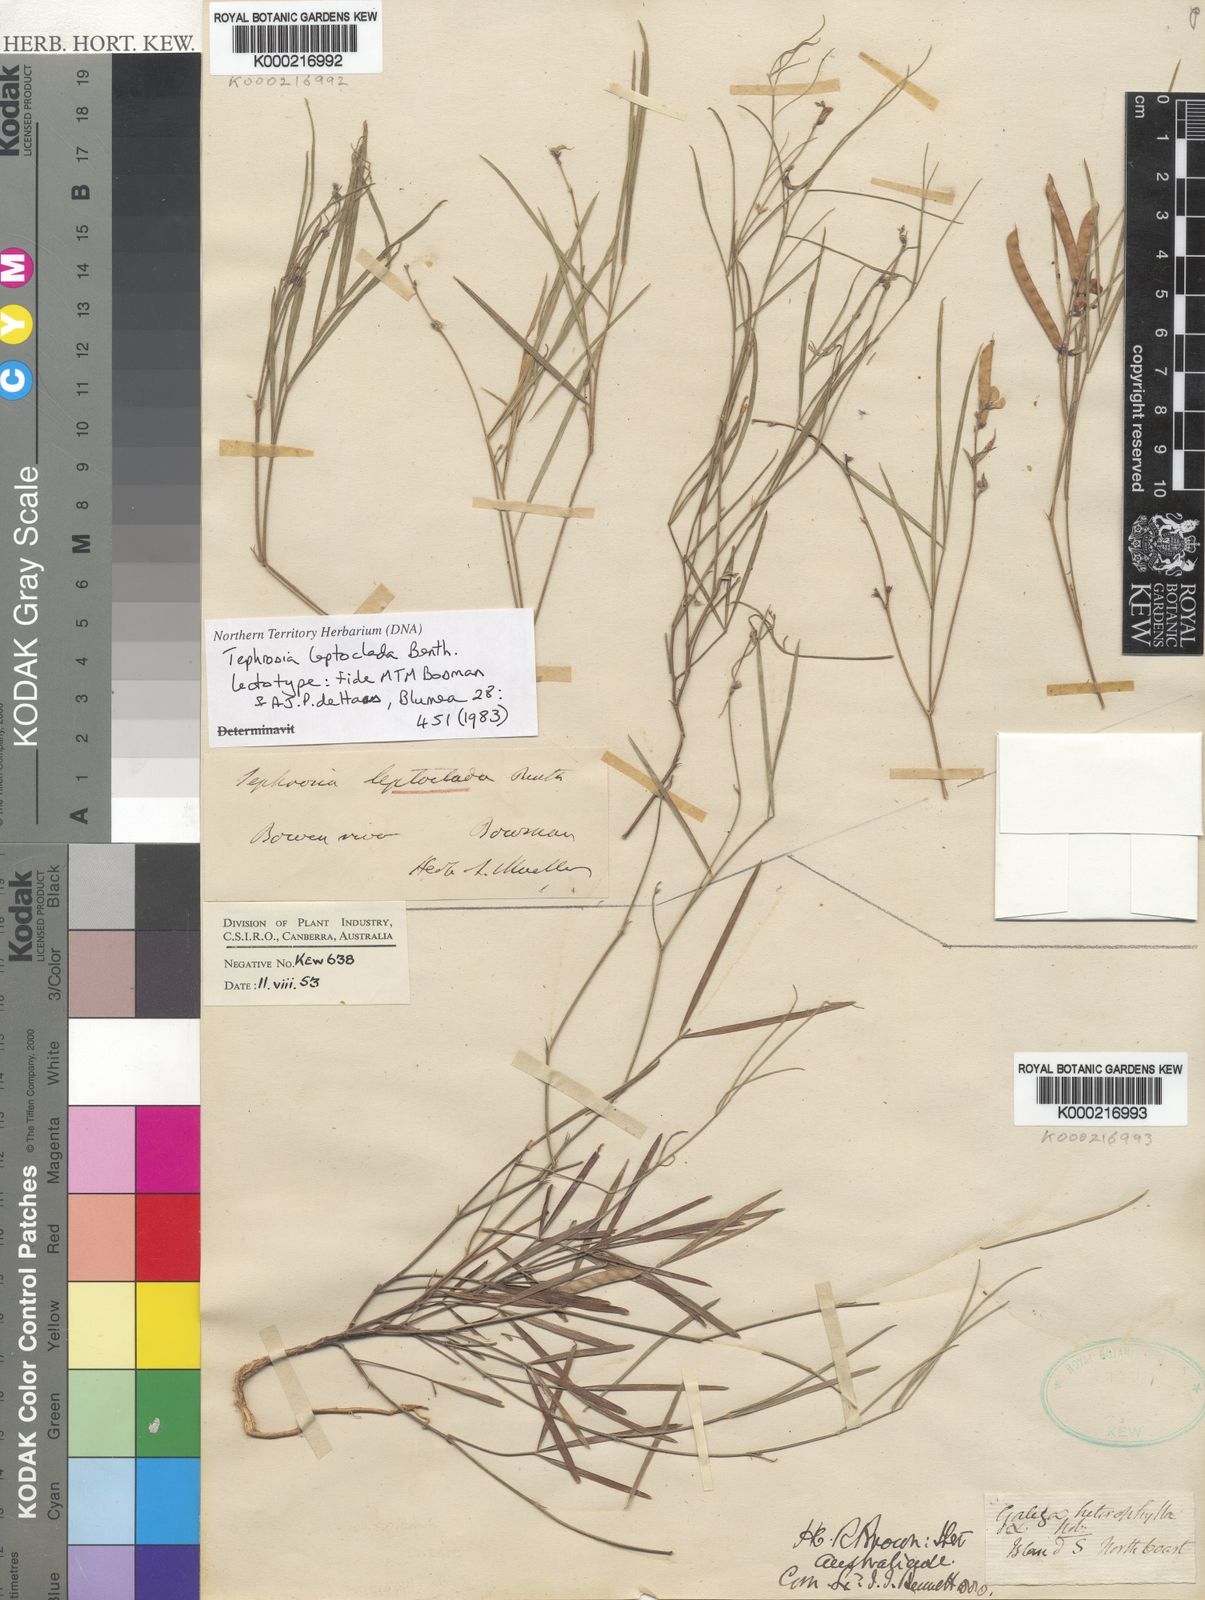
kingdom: Plantae
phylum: Tracheophyta
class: Magnoliopsida
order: Fabales
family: Fabaceae
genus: Tephrosia
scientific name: Tephrosia leptoclada
